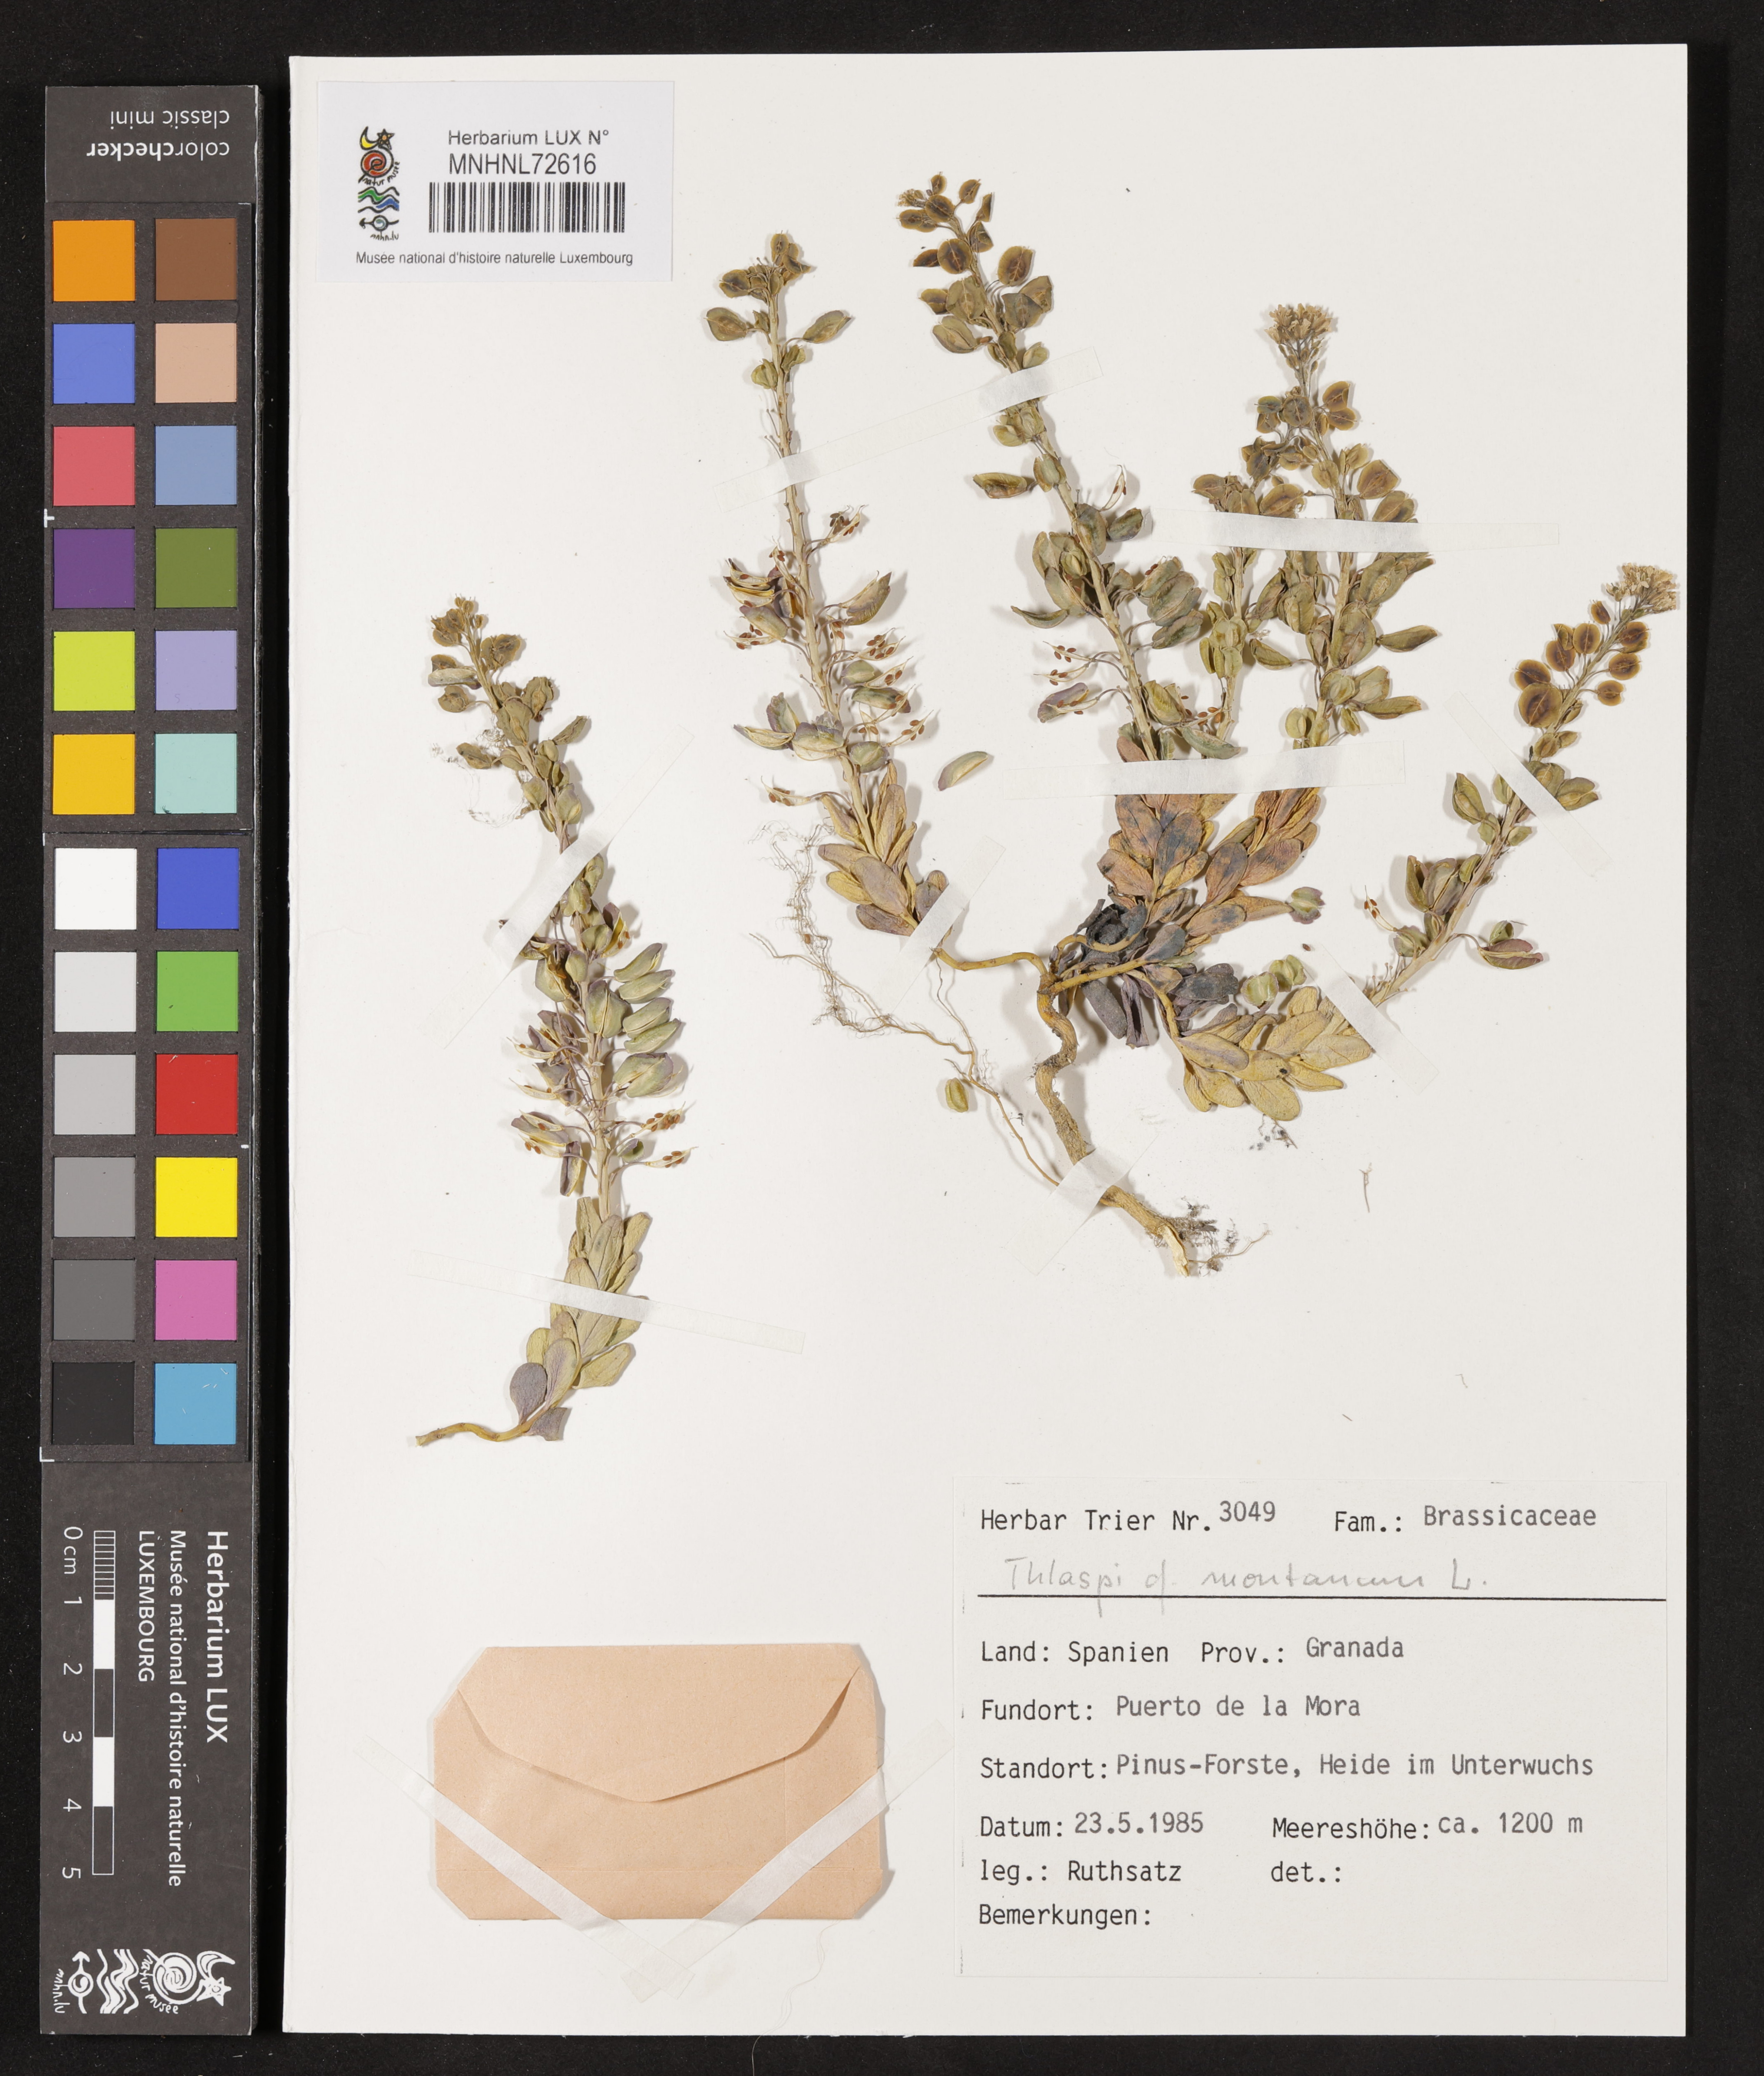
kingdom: Plantae
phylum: Tracheophyta
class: Magnoliopsida
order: Brassicales
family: Brassicaceae
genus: Noccaea
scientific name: Noccaea montana
